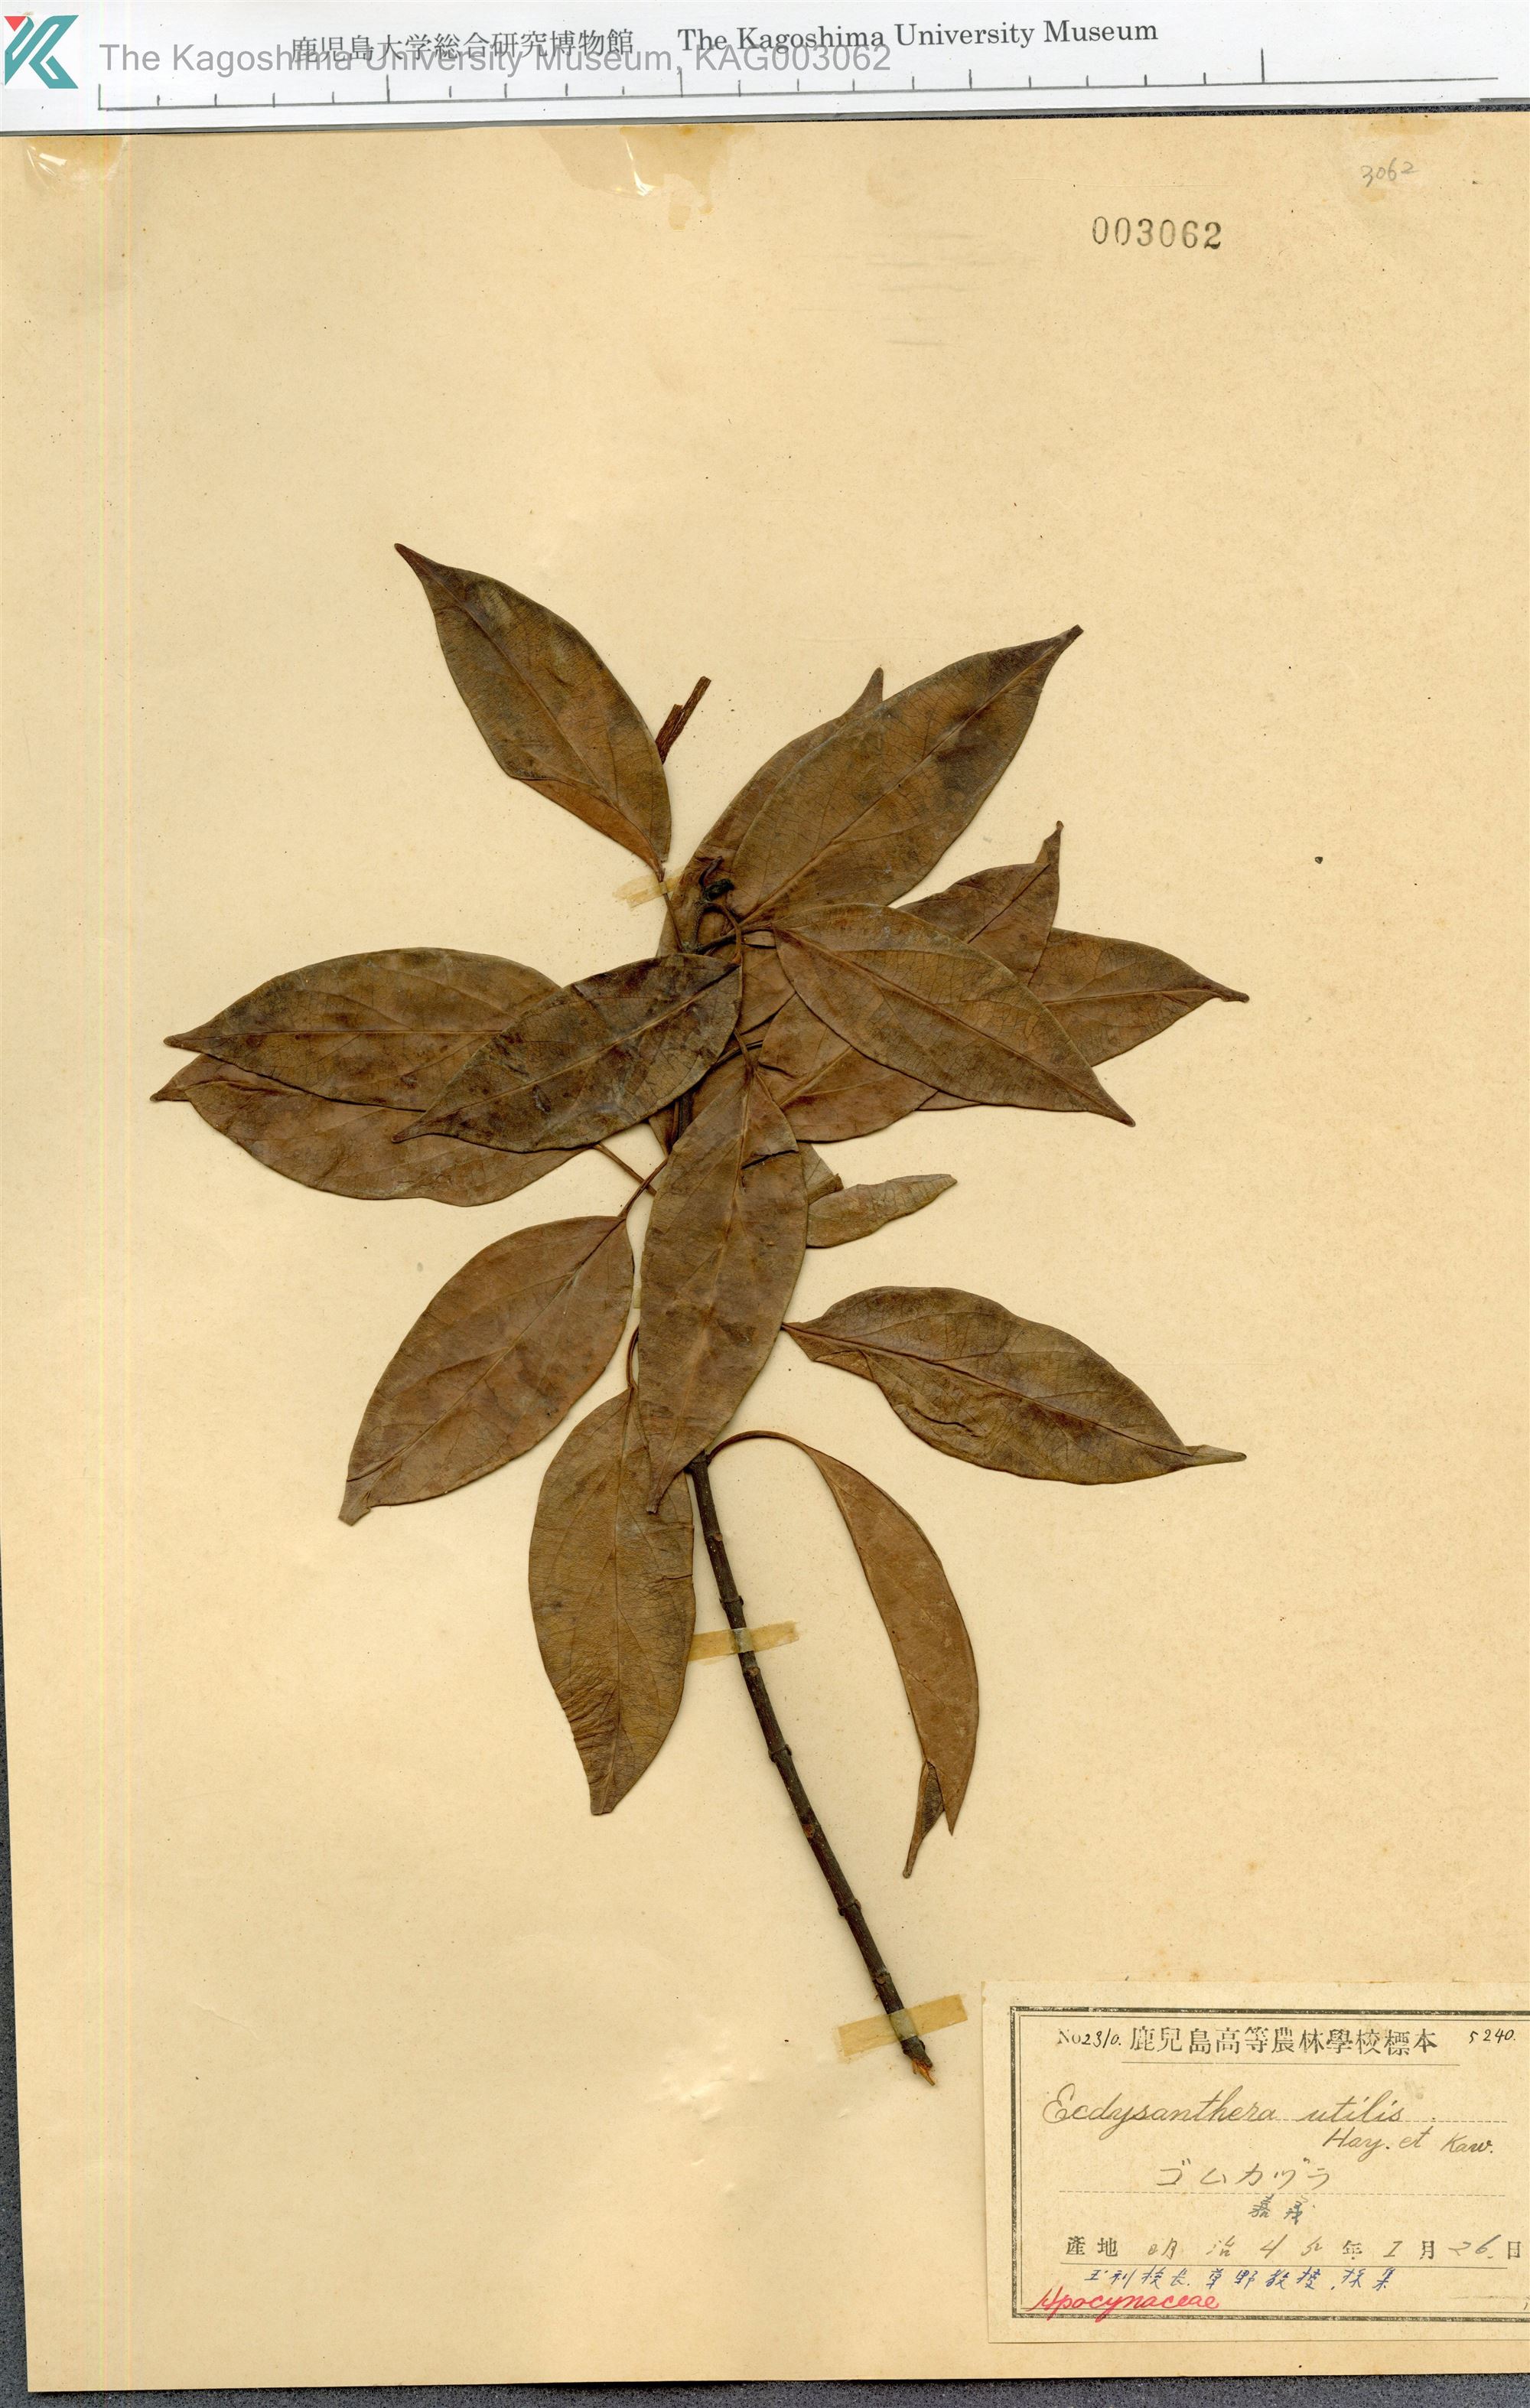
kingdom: Plantae
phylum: Tracheophyta
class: Magnoliopsida
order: Gentianales
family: Apocynaceae
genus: Urceola
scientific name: Urceola micrantha
